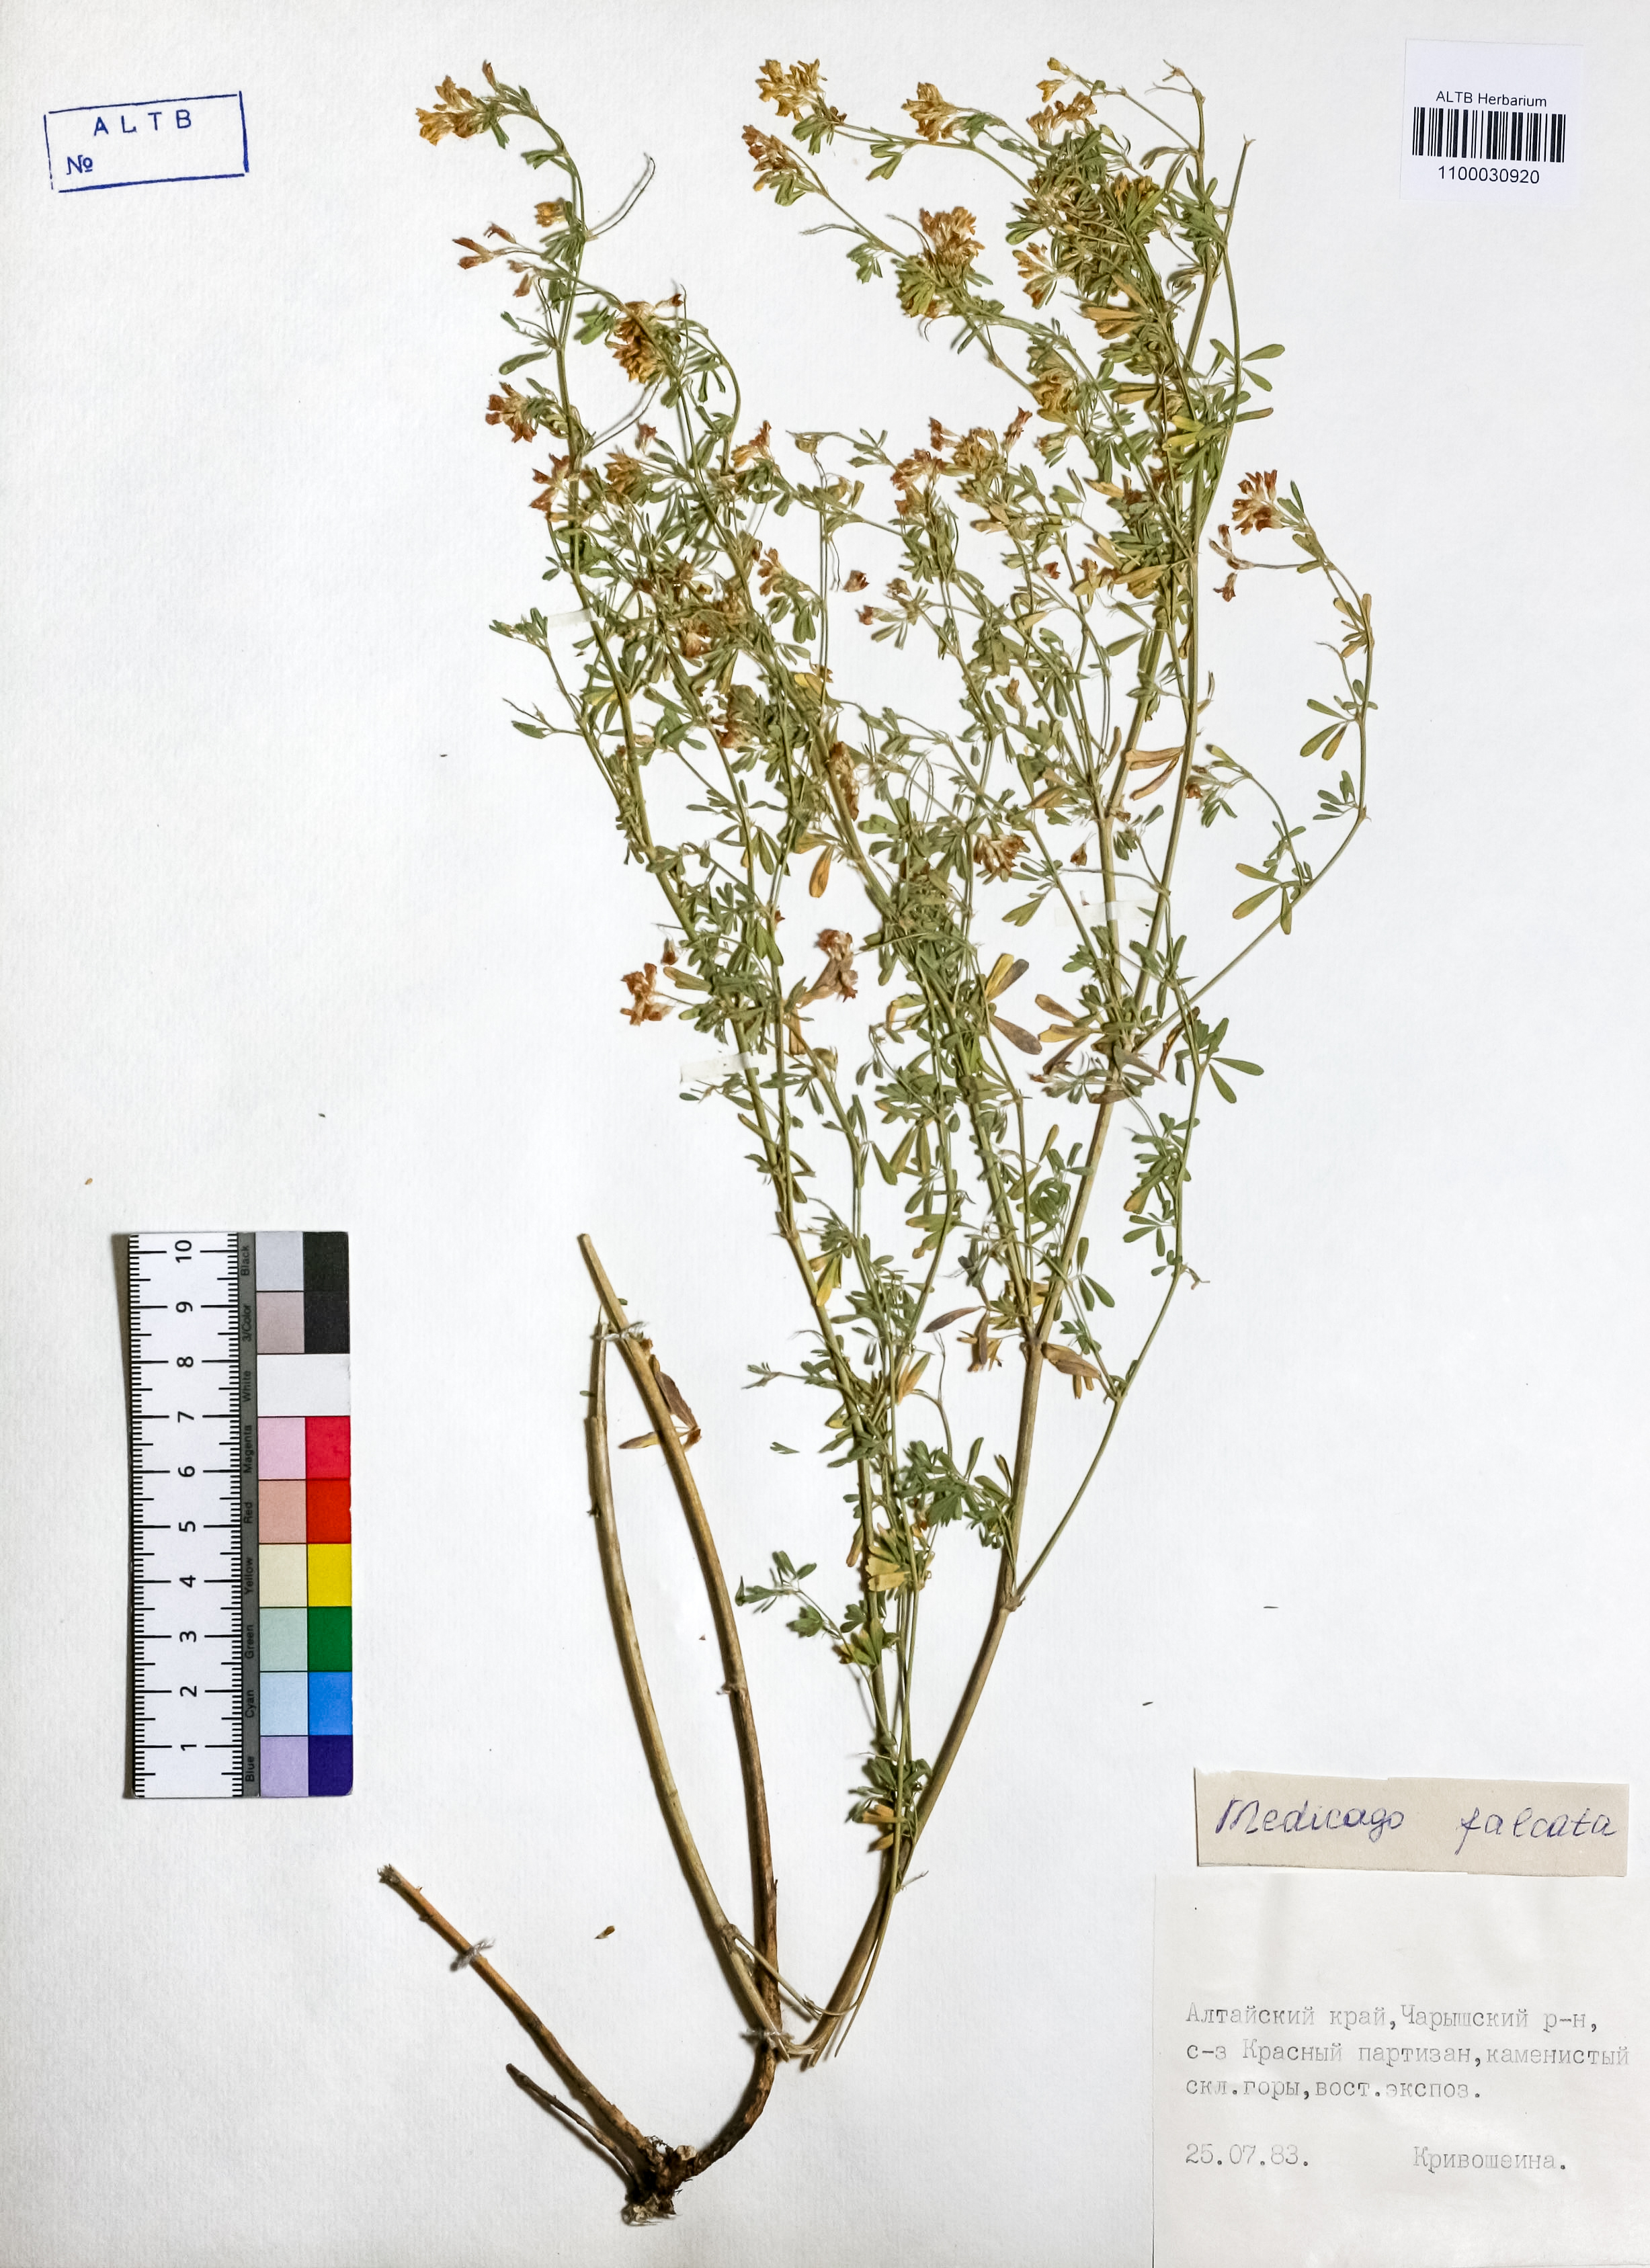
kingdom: Plantae
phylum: Tracheophyta
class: Magnoliopsida
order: Fabales
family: Fabaceae
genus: Medicago
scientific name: Medicago falcata
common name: Sickle medick
